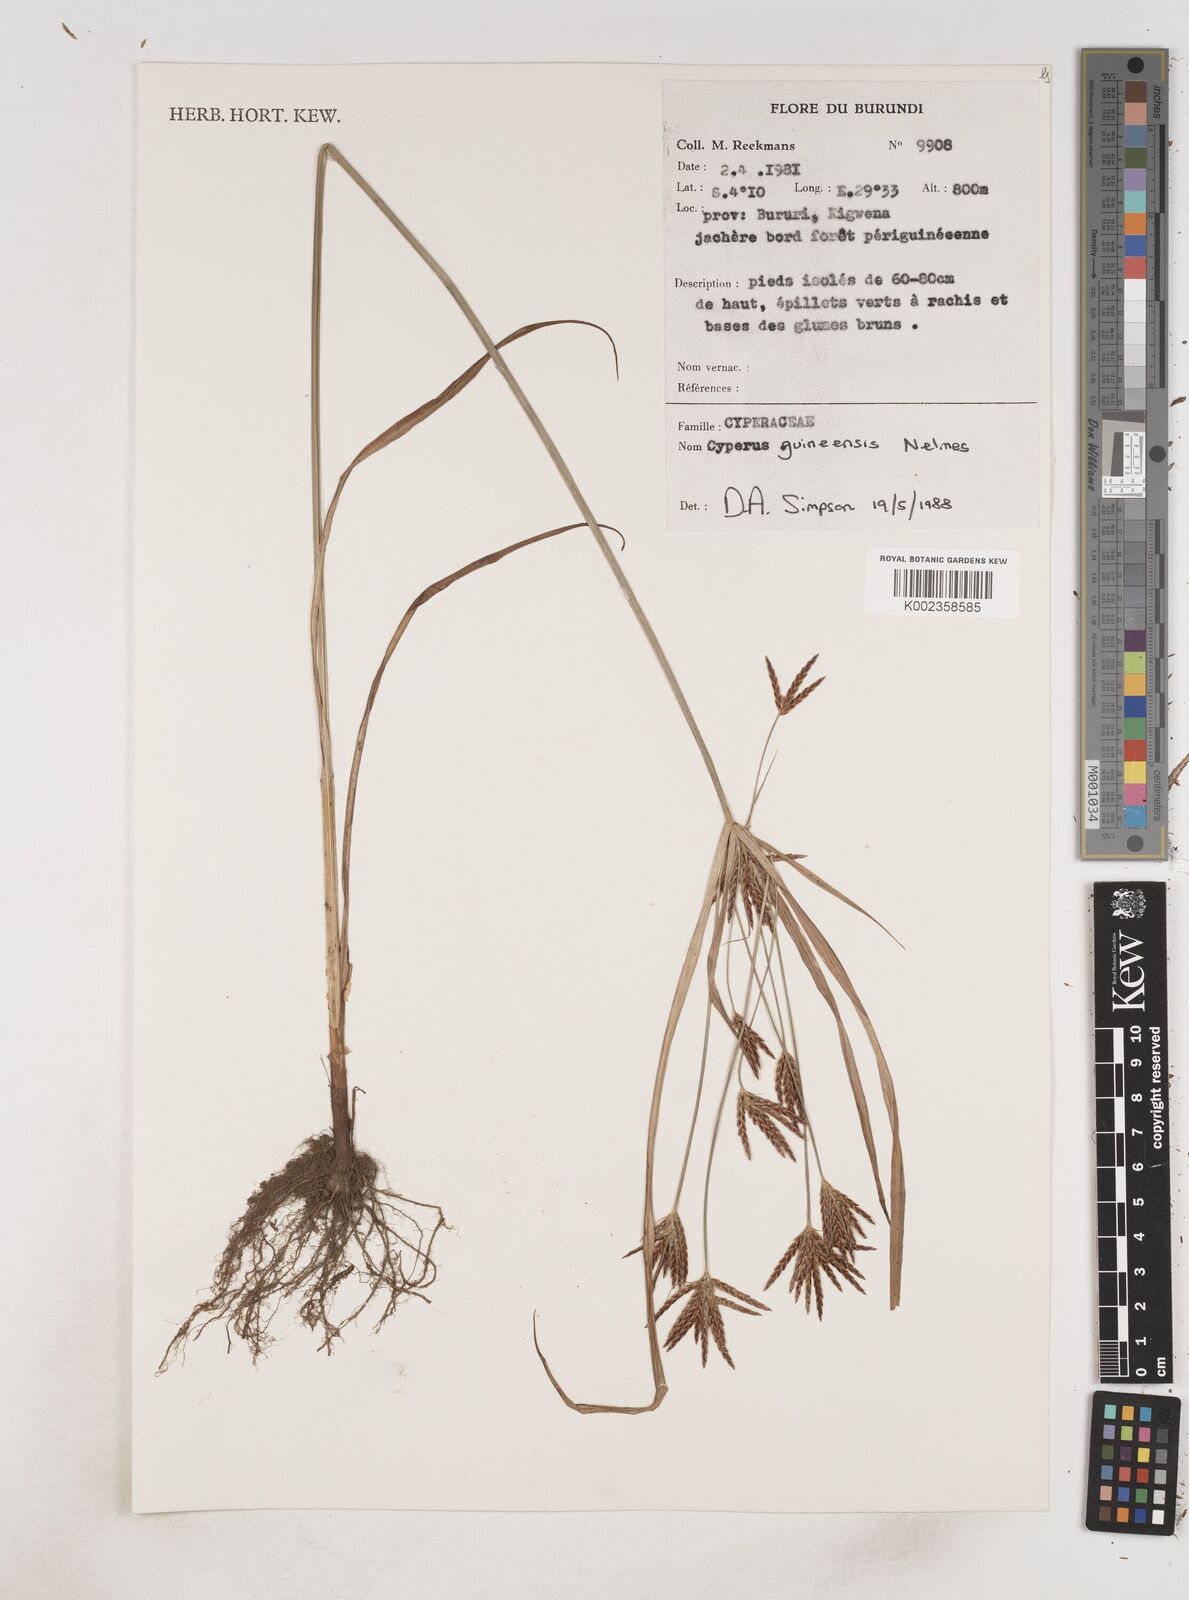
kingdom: Plantae
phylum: Tracheophyta
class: Liliopsida
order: Poales
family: Cyperaceae
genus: Cyperus
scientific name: Cyperus tenuiculmis
